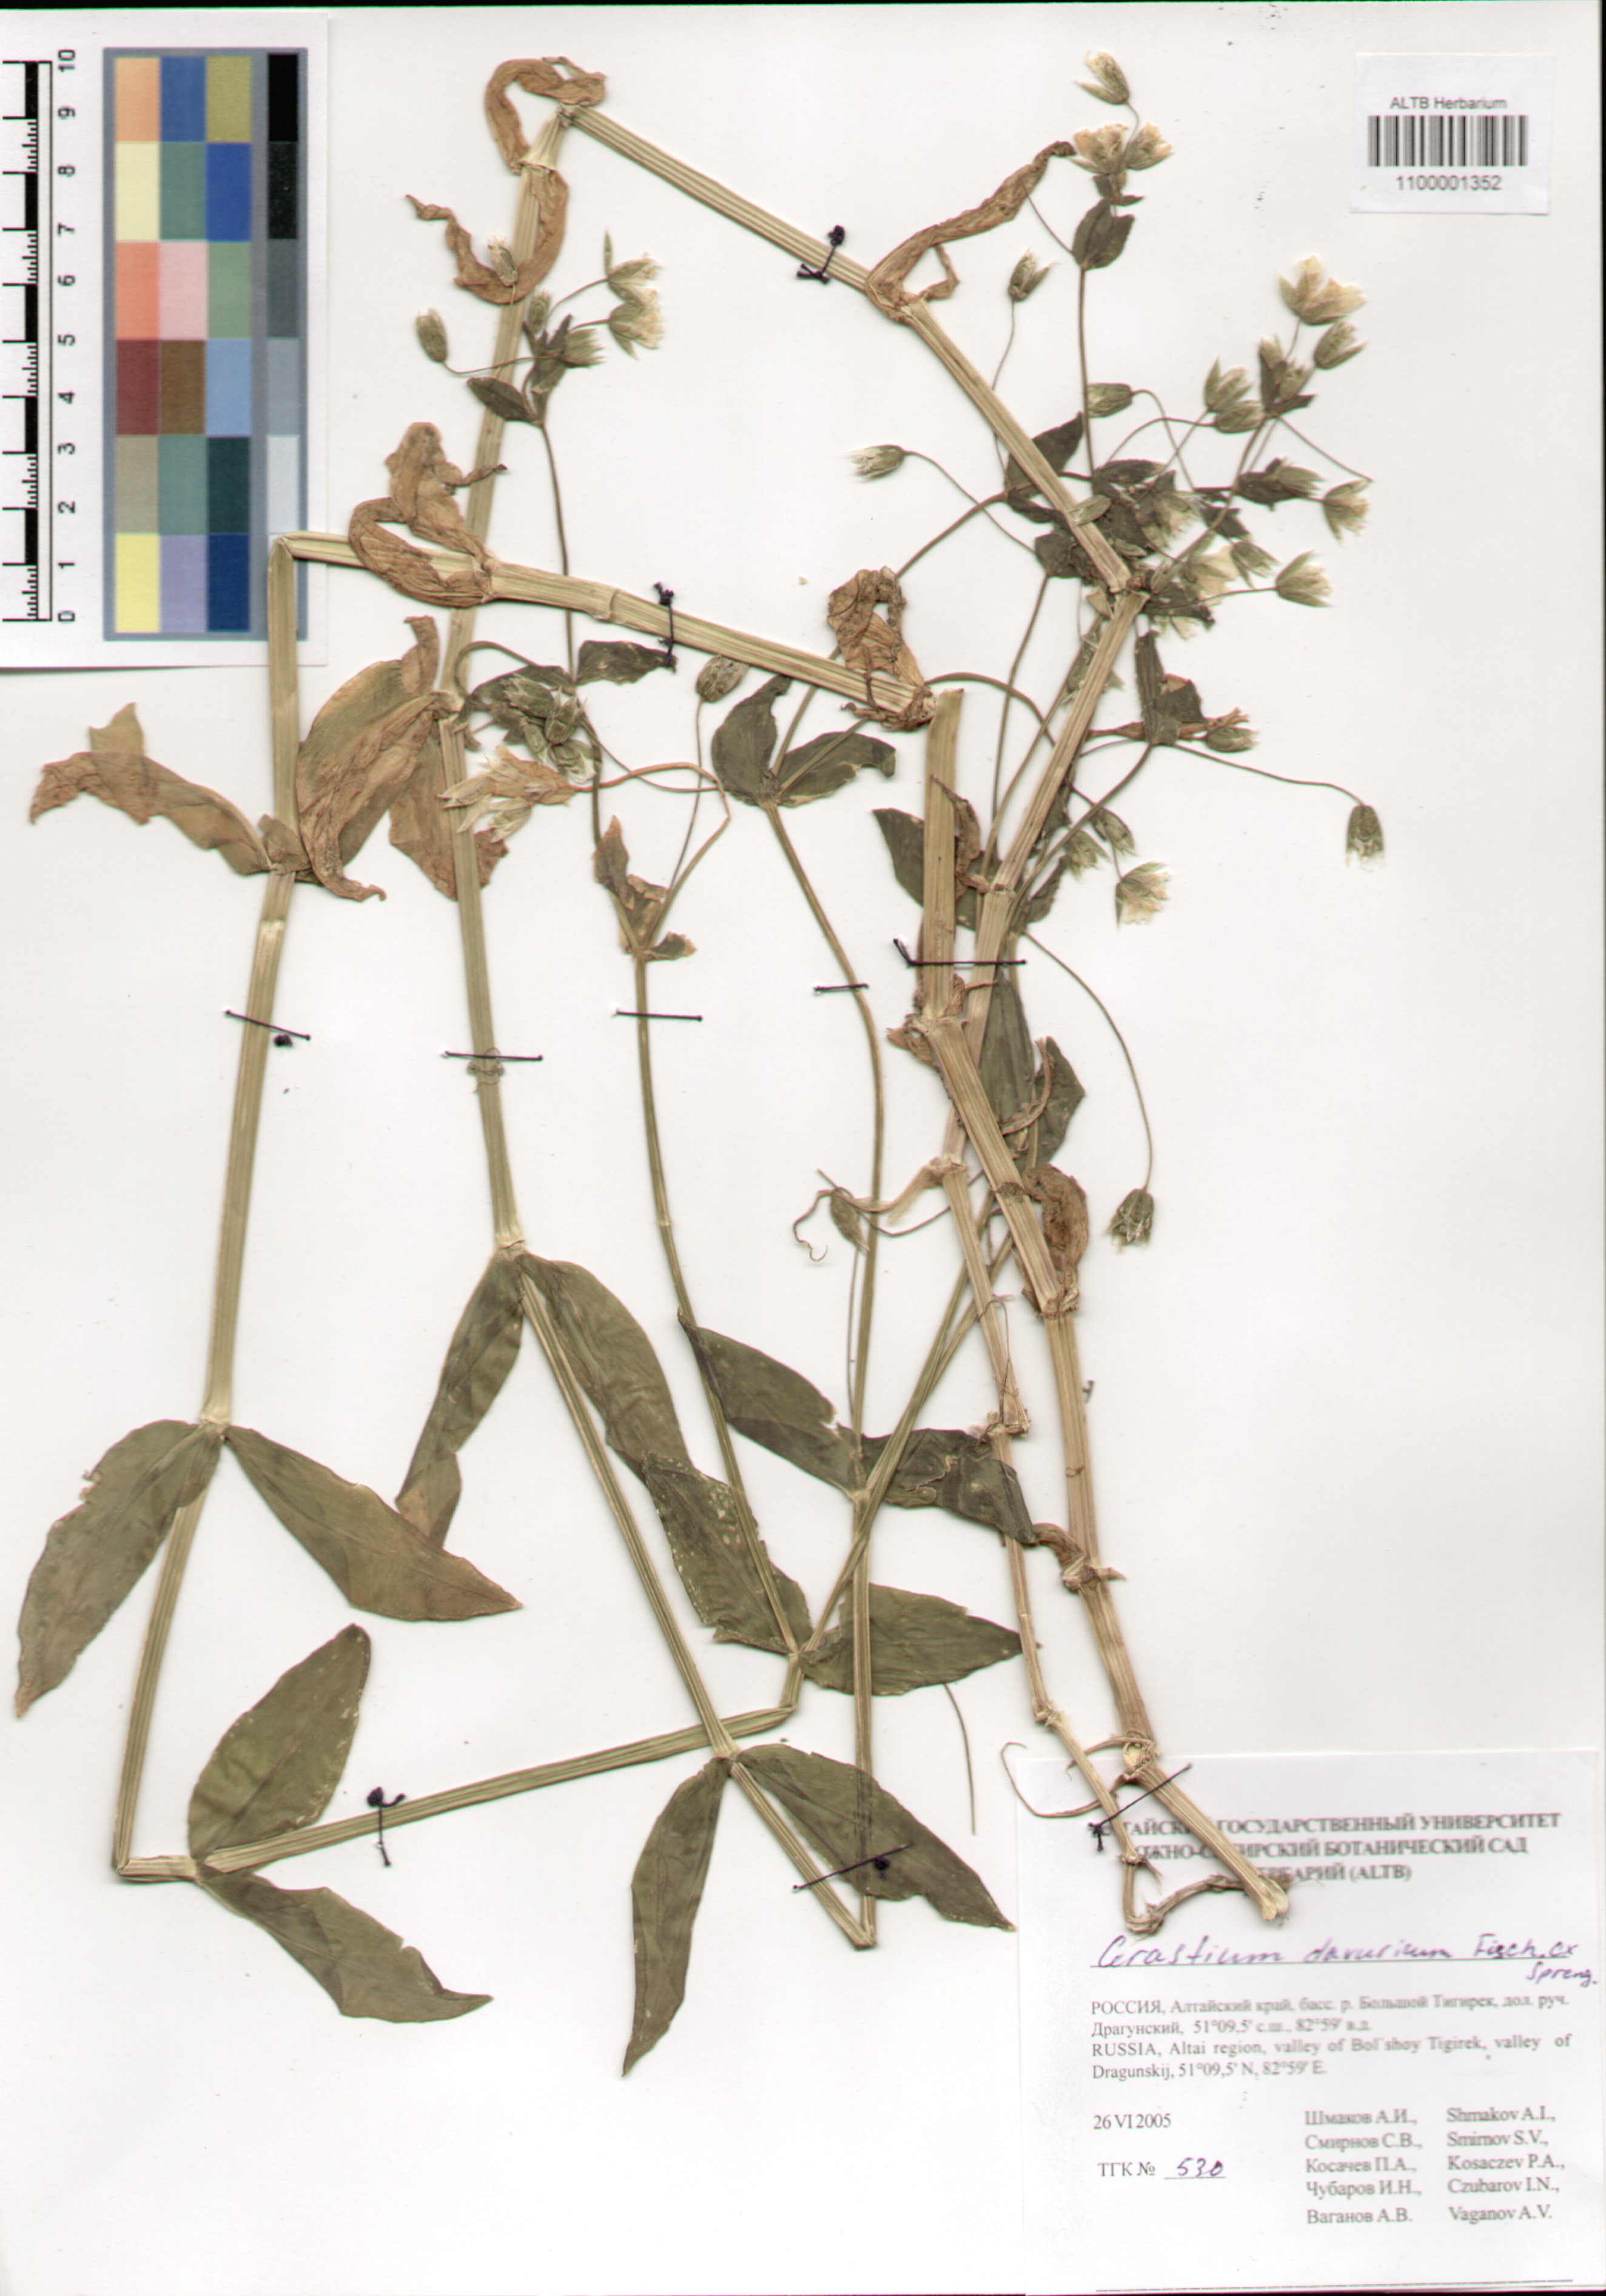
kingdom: Plantae
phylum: Tracheophyta
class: Magnoliopsida
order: Caryophyllales
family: Caryophyllaceae
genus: Dichodon
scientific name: Dichodon davuricum
